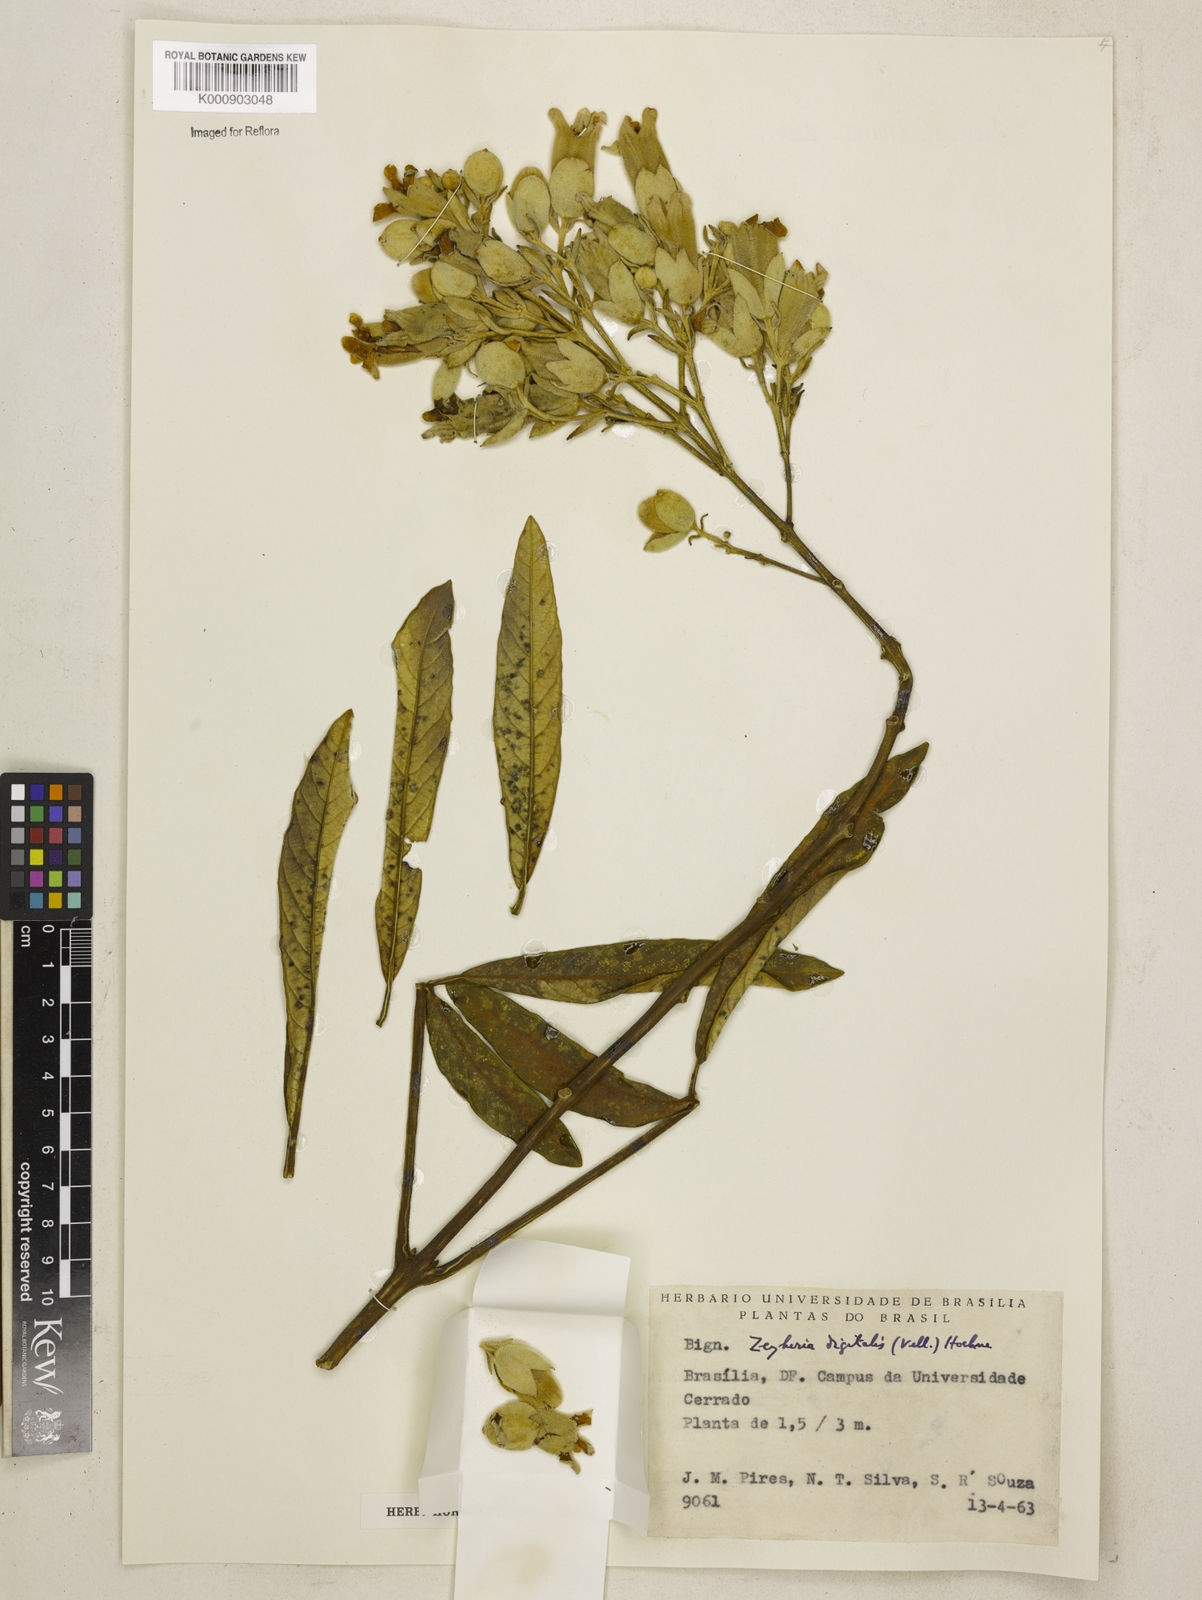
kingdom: Plantae
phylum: Tracheophyta
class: Magnoliopsida
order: Lamiales
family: Bignoniaceae
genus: Zeyheria
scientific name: Zeyheria
